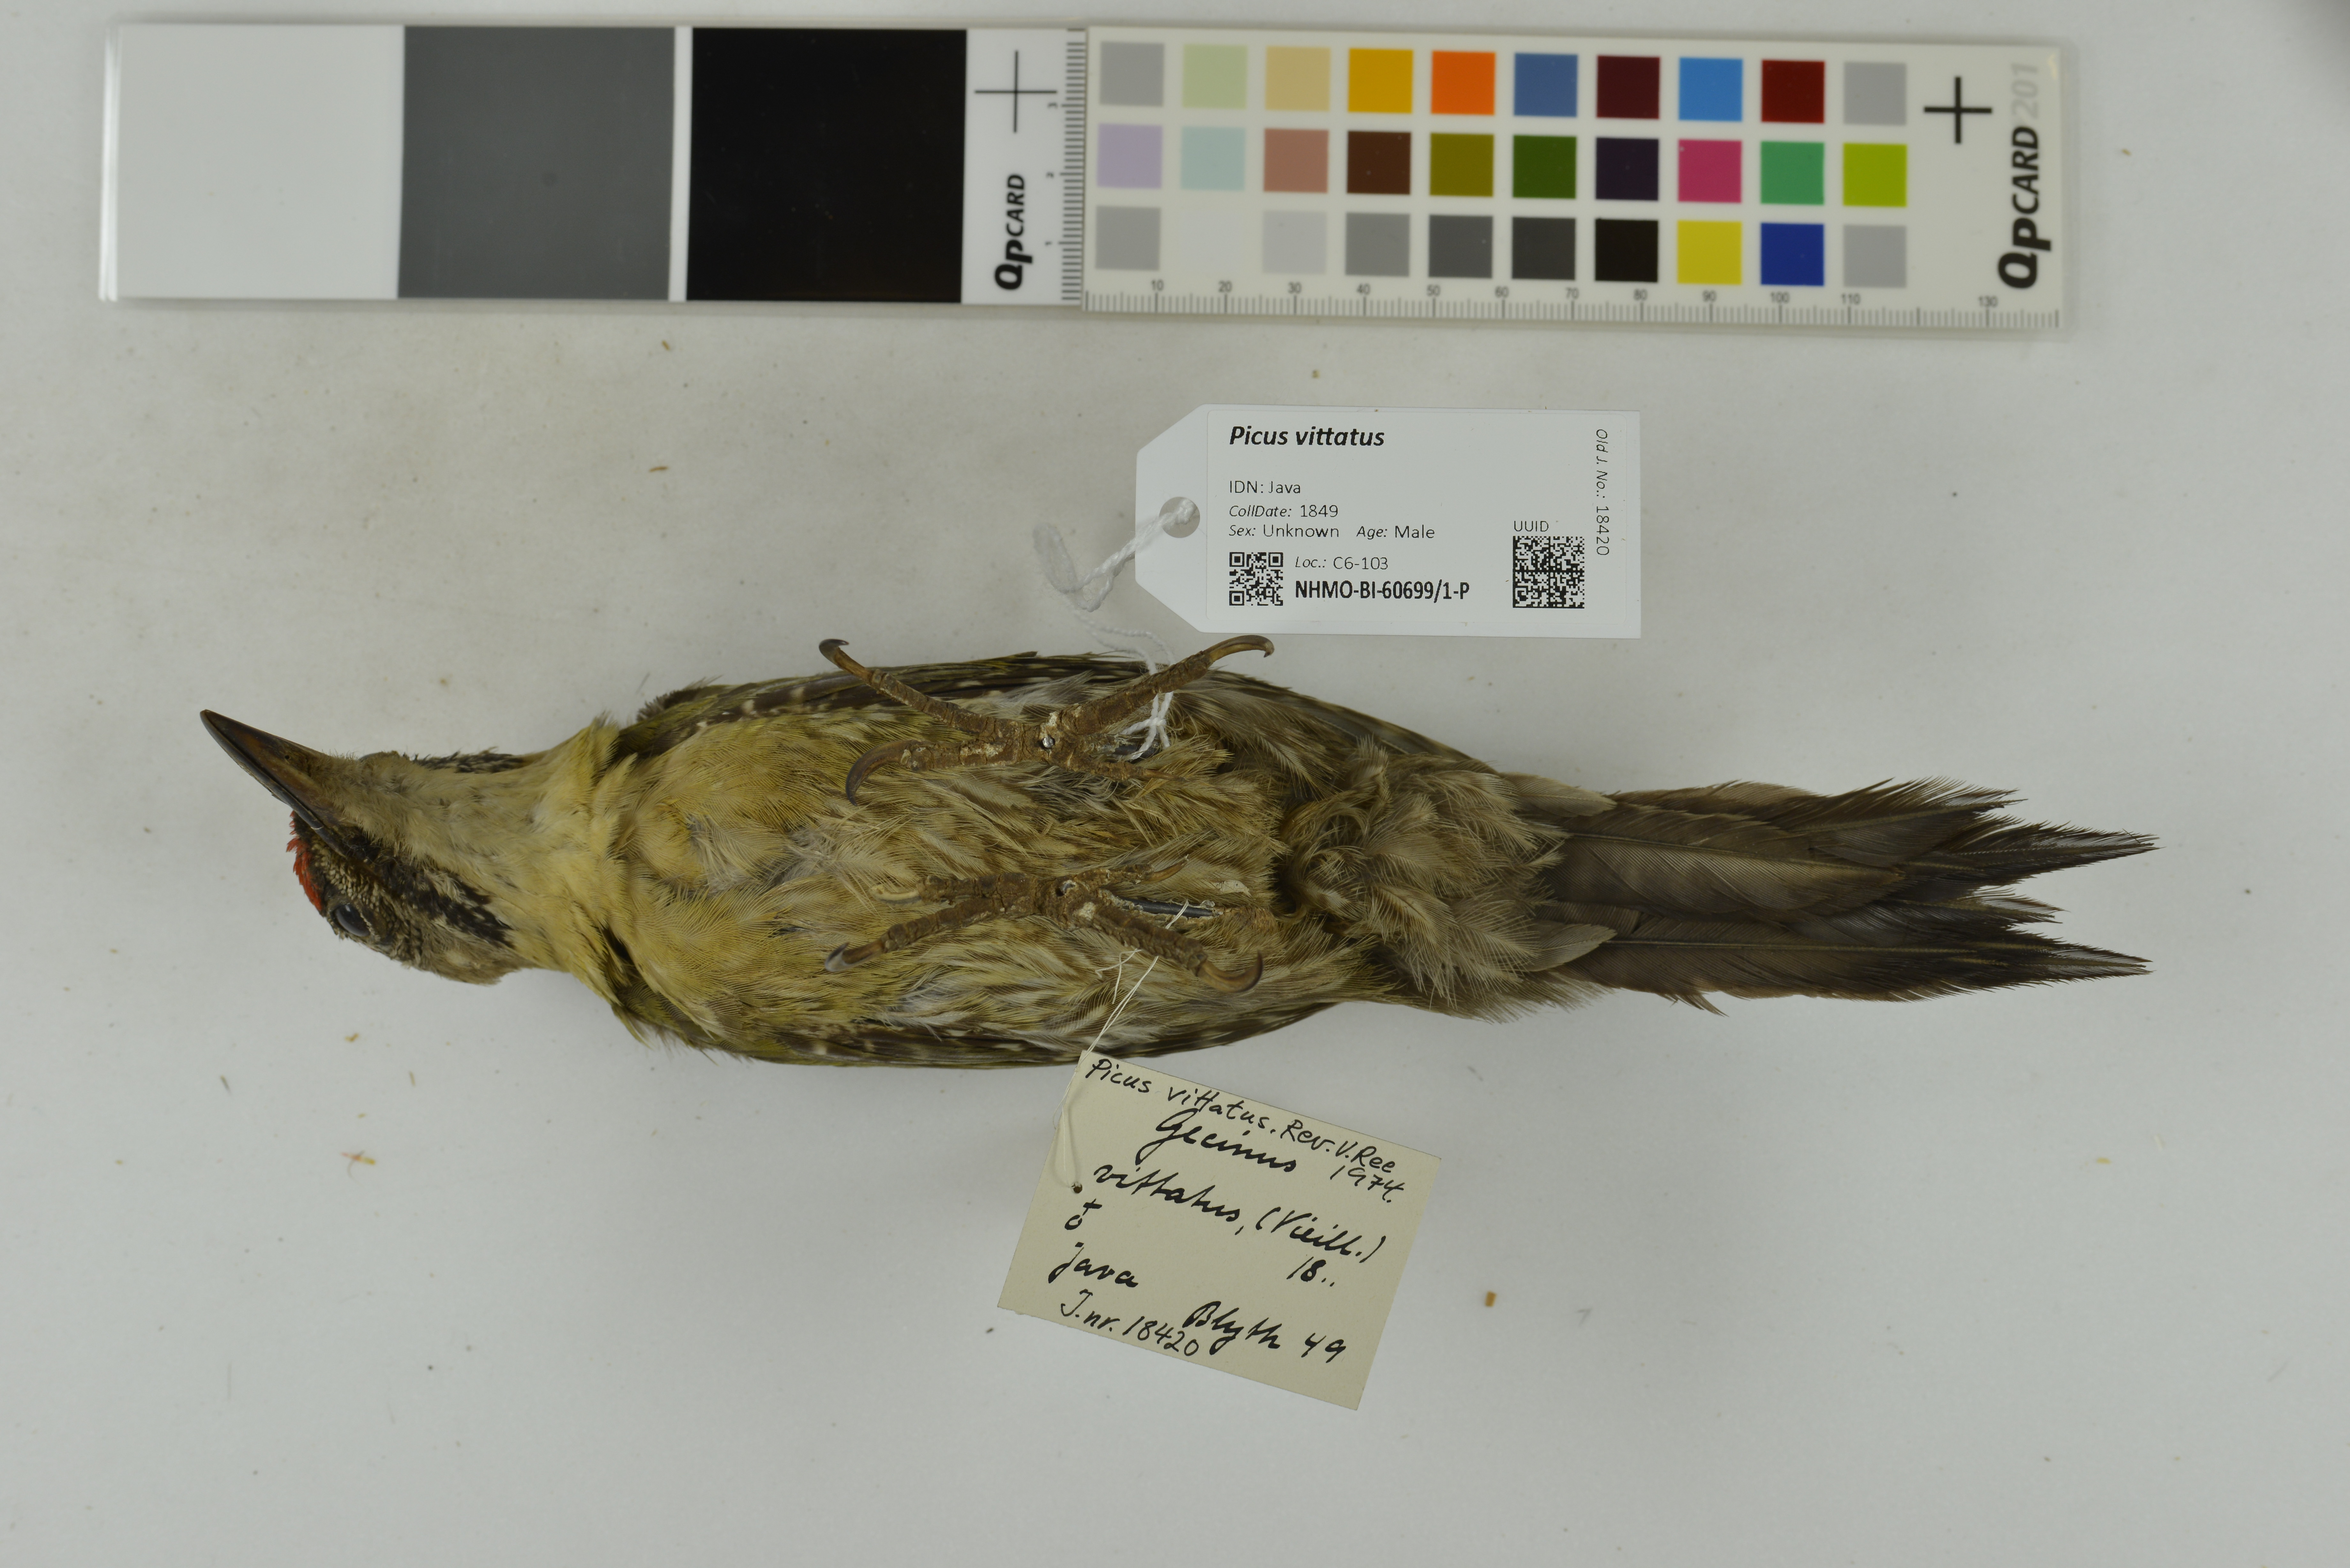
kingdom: Animalia
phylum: Chordata
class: Aves
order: Piciformes
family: Picidae
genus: Picus
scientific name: Picus vittatus
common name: Laced woodpecker
